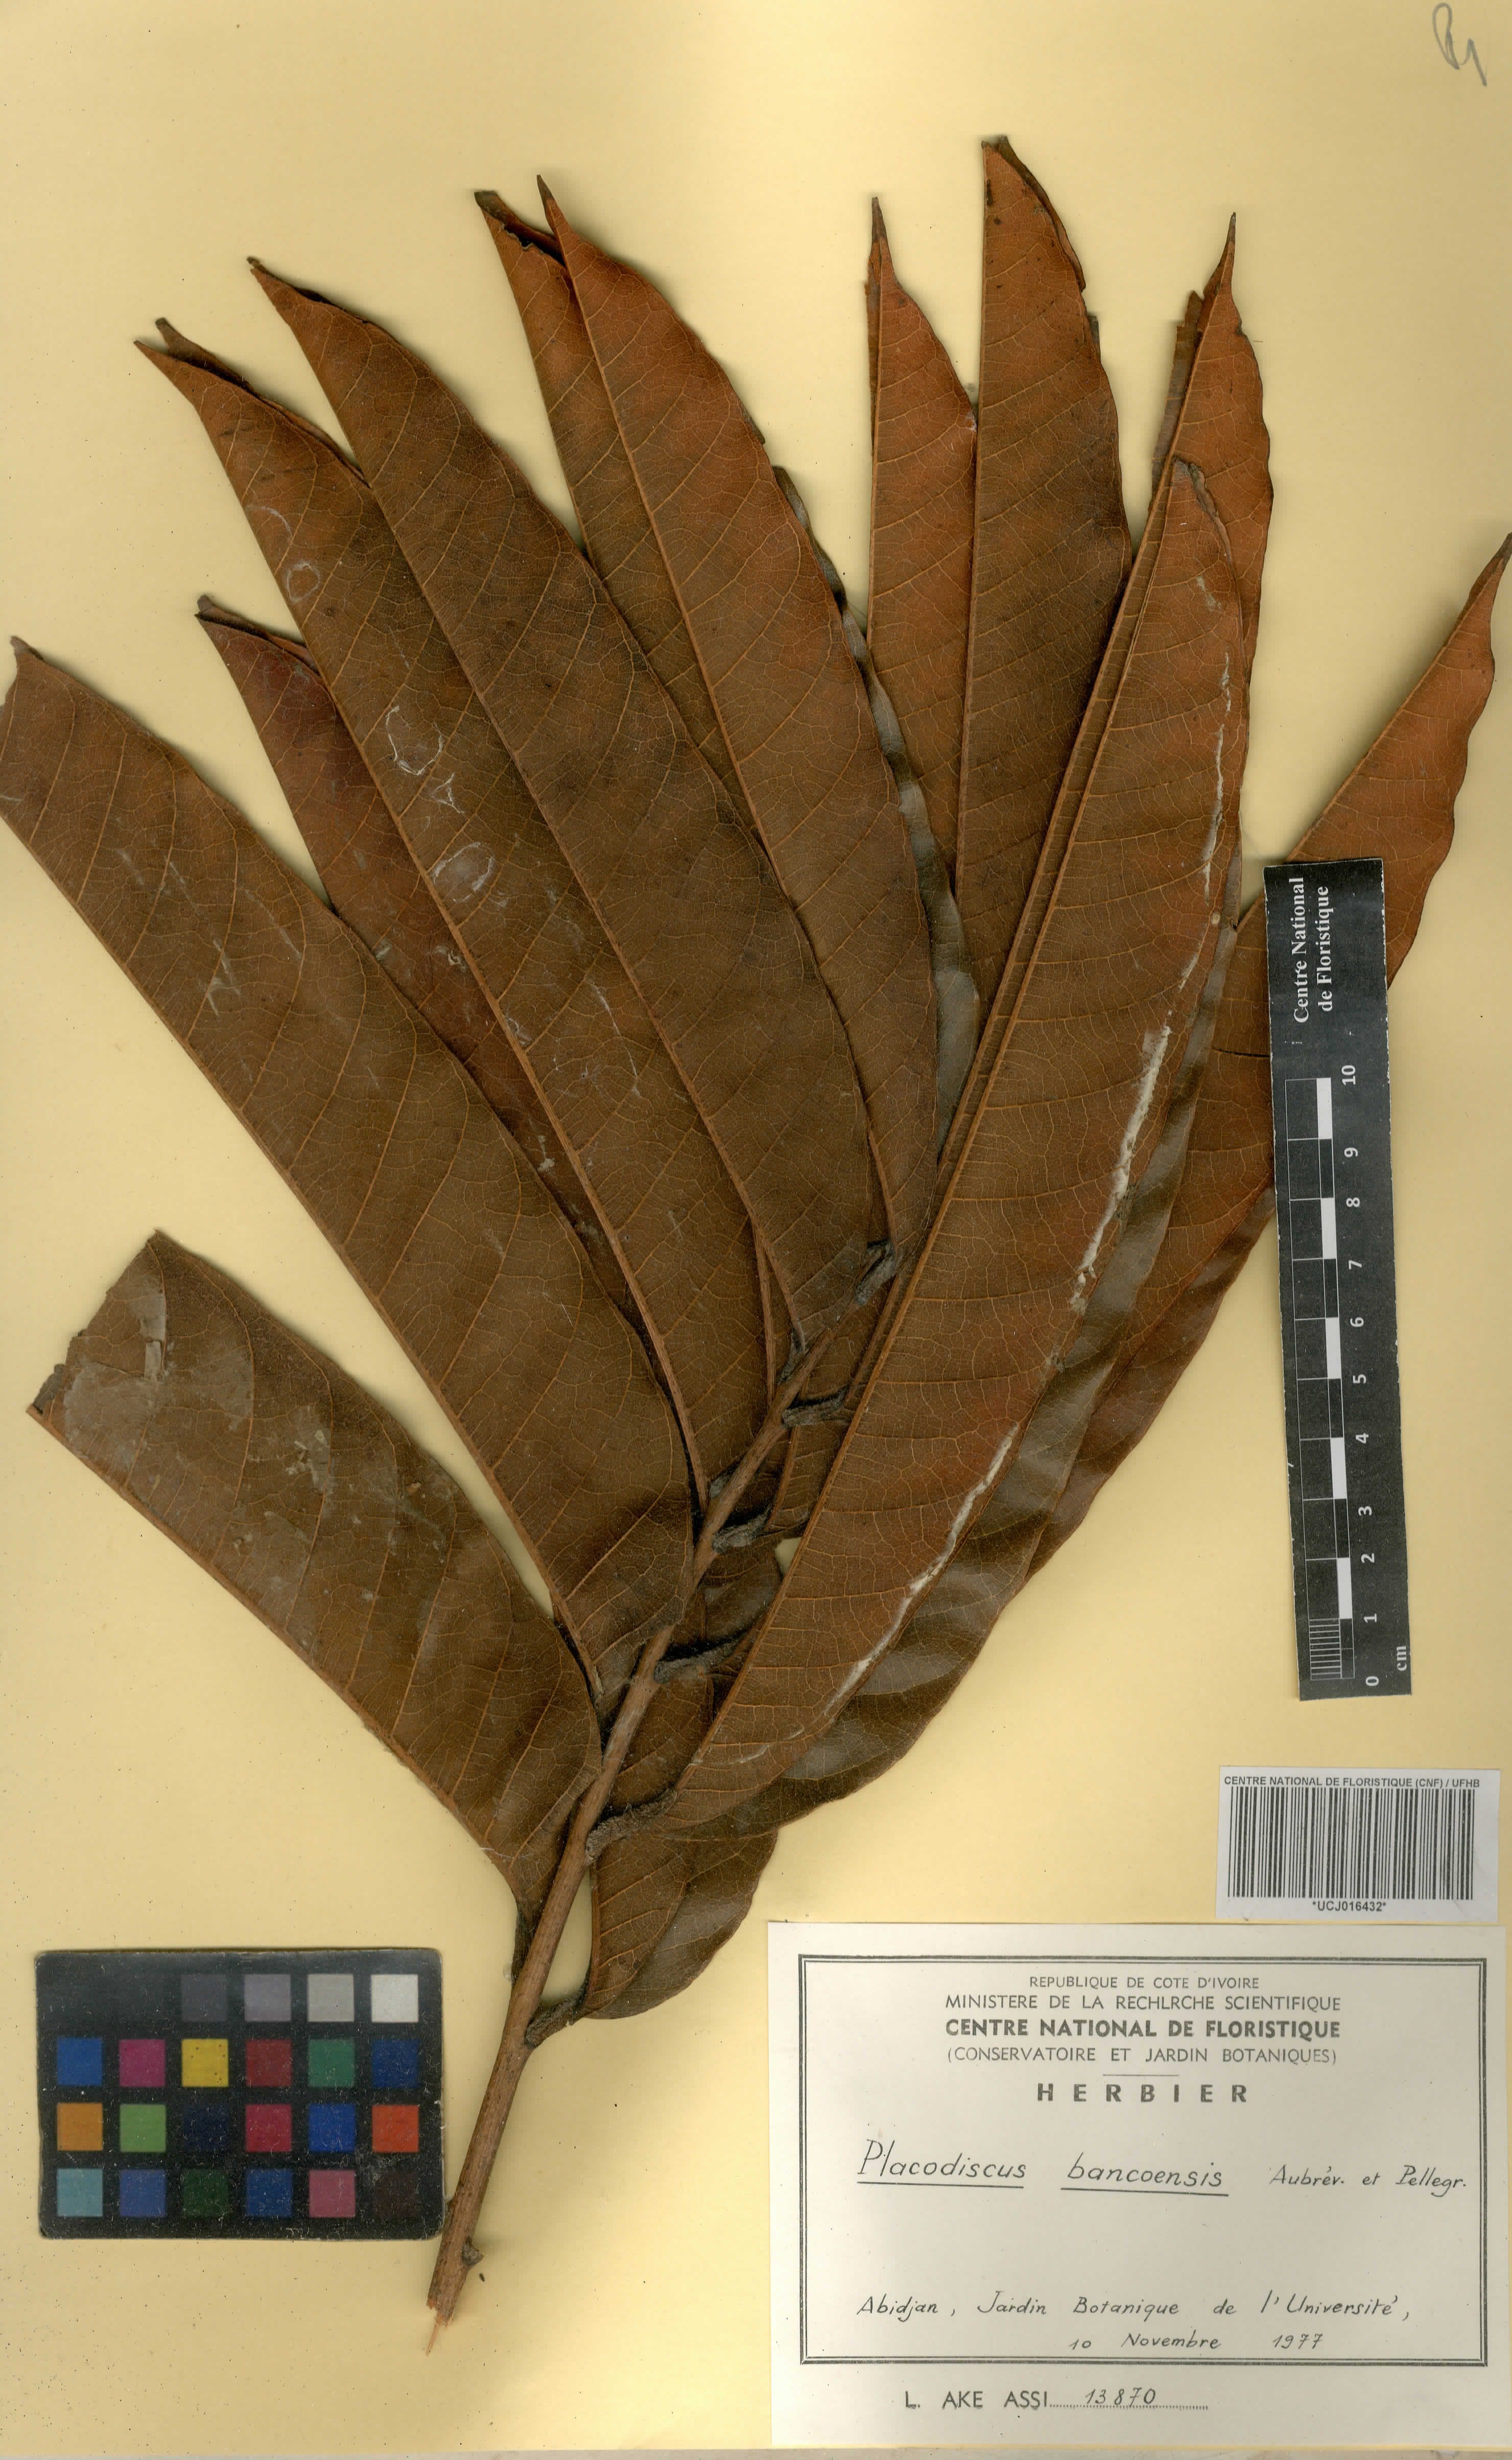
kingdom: Plantae
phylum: Tracheophyta
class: Magnoliopsida
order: Sapindales
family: Sapindaceae
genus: Placodiscus
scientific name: Placodiscus bancoensis
